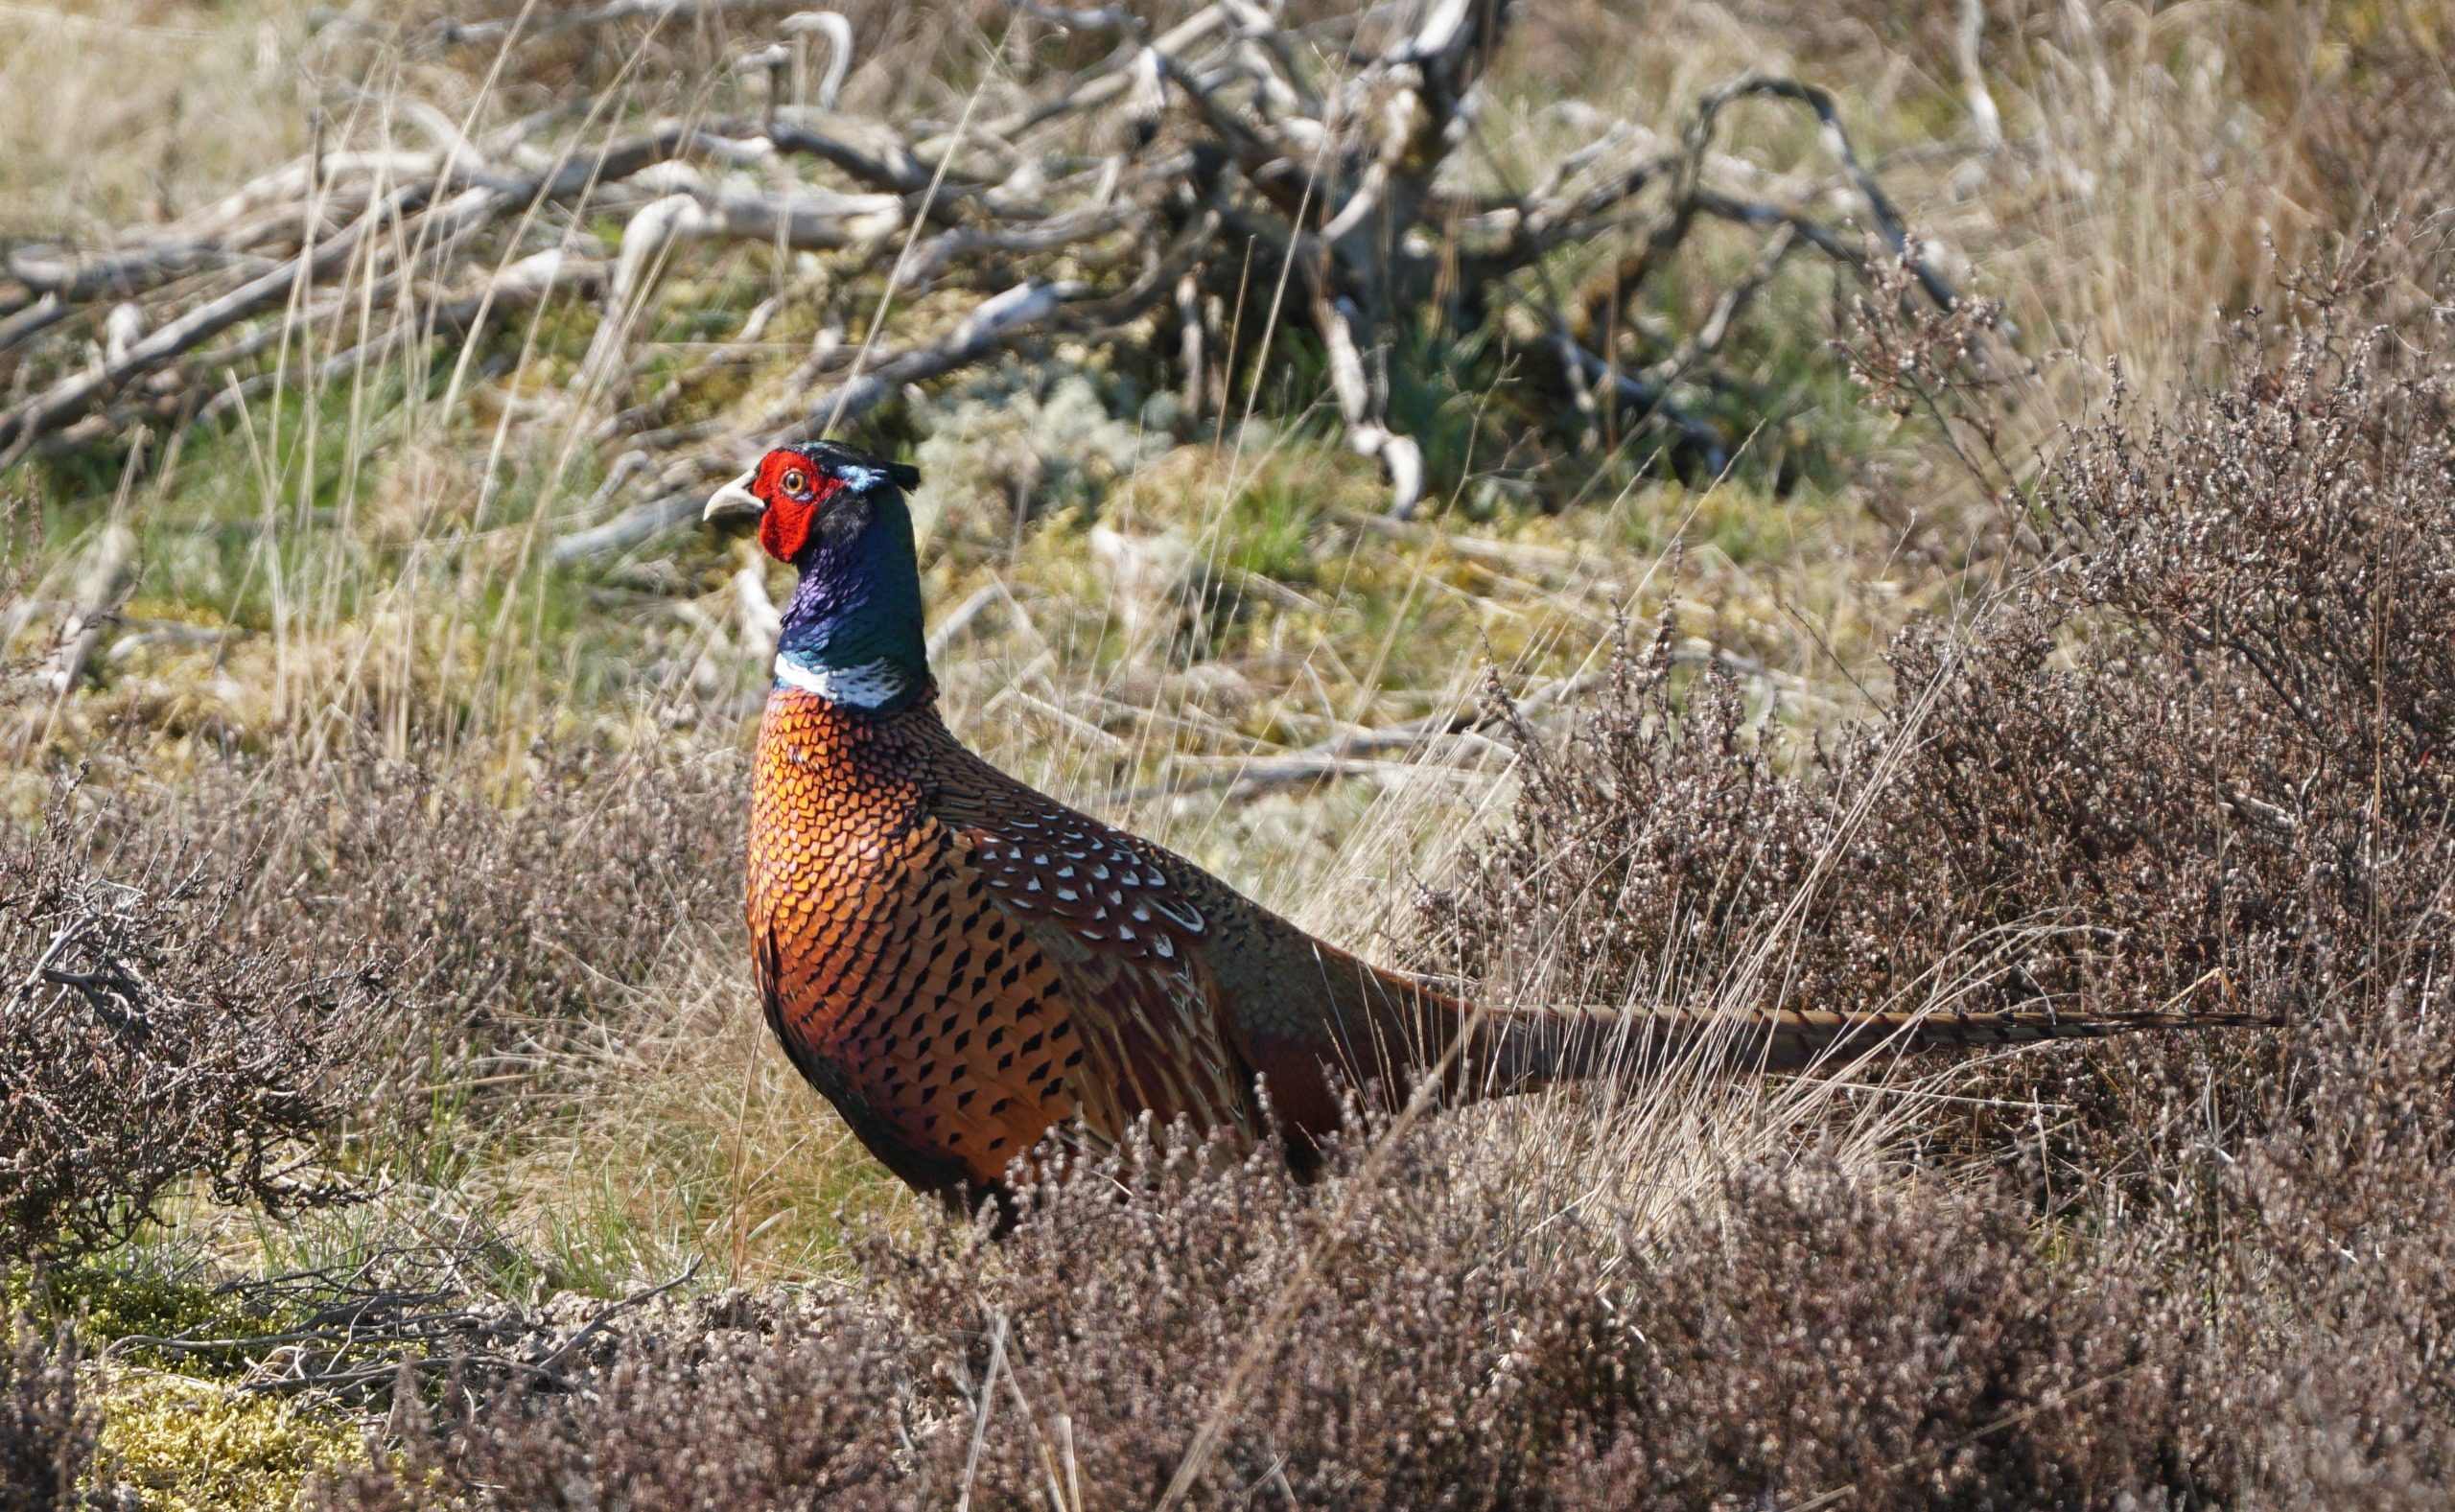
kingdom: Animalia
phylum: Chordata
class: Aves
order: Galliformes
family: Phasianidae
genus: Phasianus
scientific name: Phasianus colchicus
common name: Fasan
